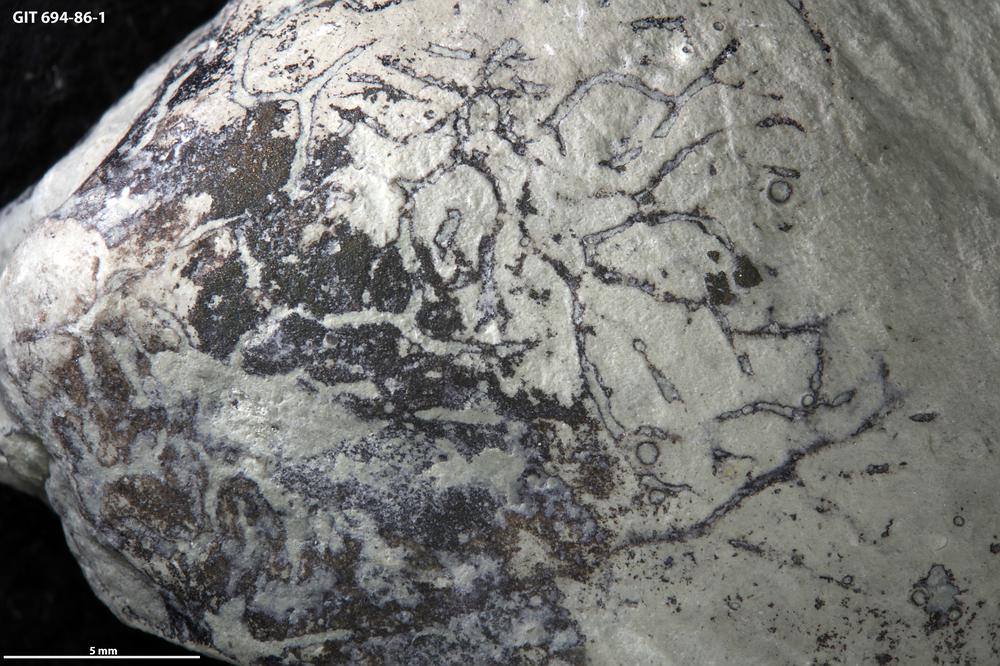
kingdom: Animalia
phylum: Annelida
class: Polychaeta
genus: Arachnostega
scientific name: Arachnostega gastrochaenae
